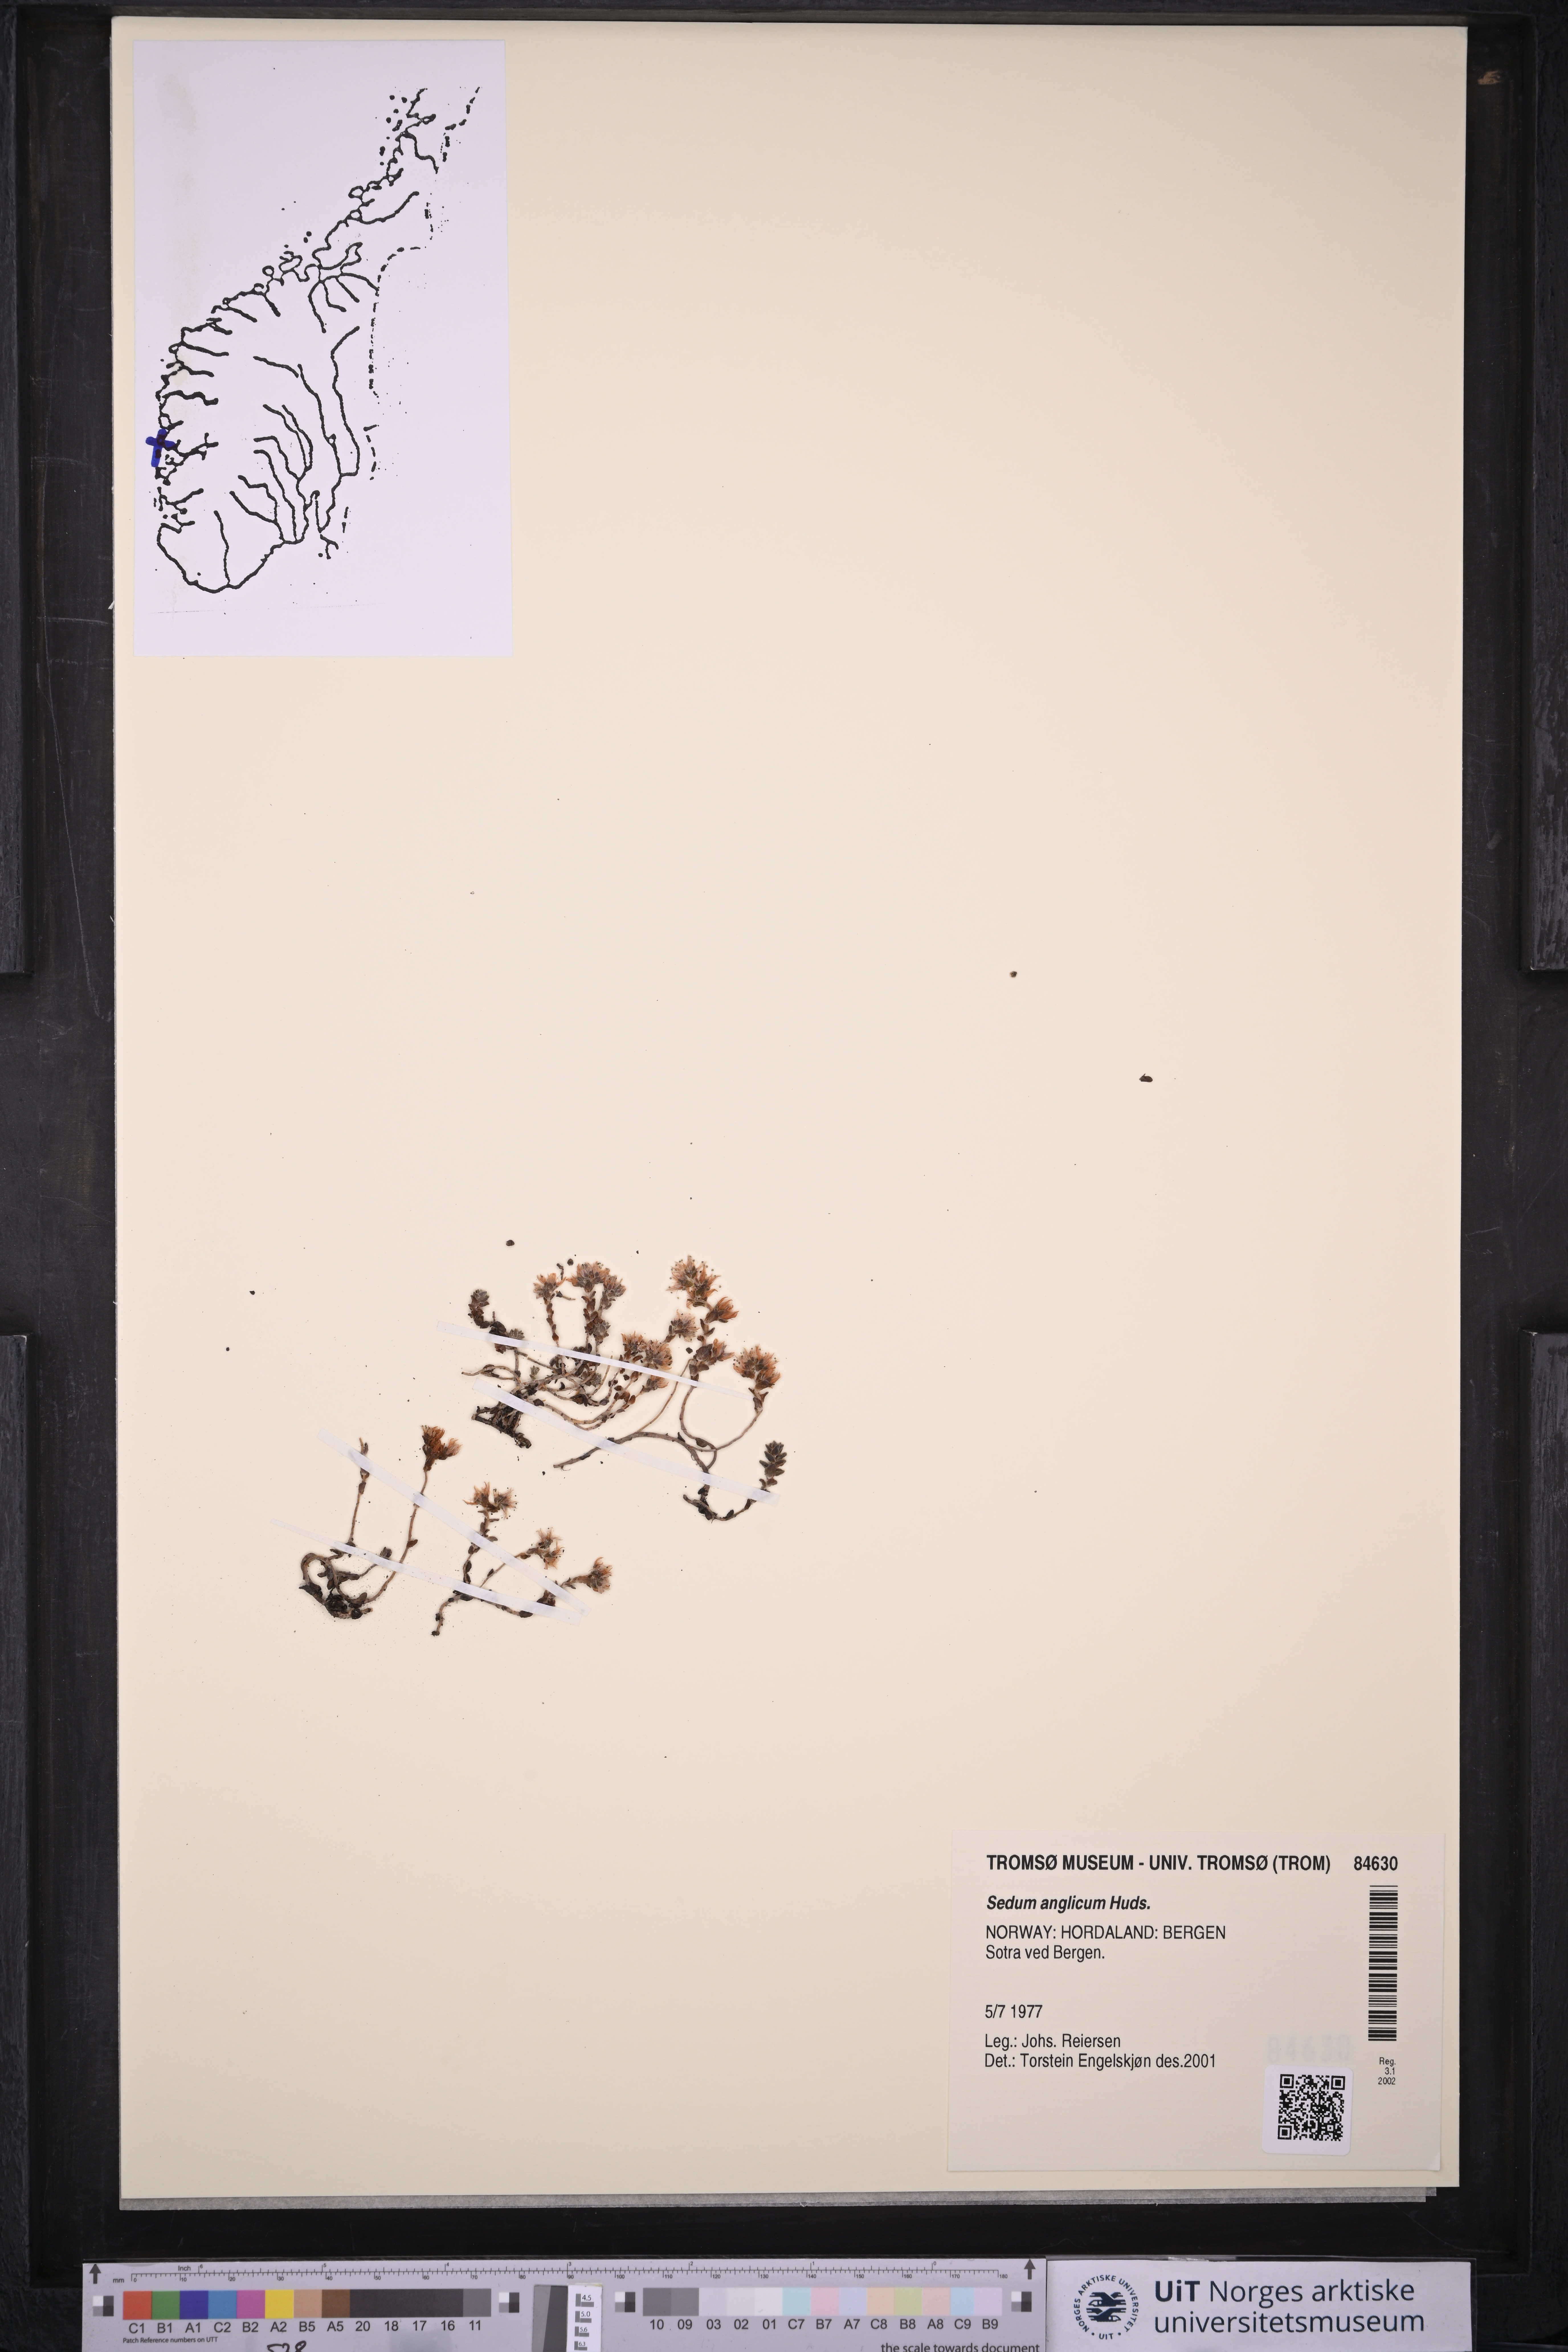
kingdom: Plantae
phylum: Tracheophyta
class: Magnoliopsida
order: Saxifragales
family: Crassulaceae
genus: Sedum
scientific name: Sedum anglicum
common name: English stonecrop
